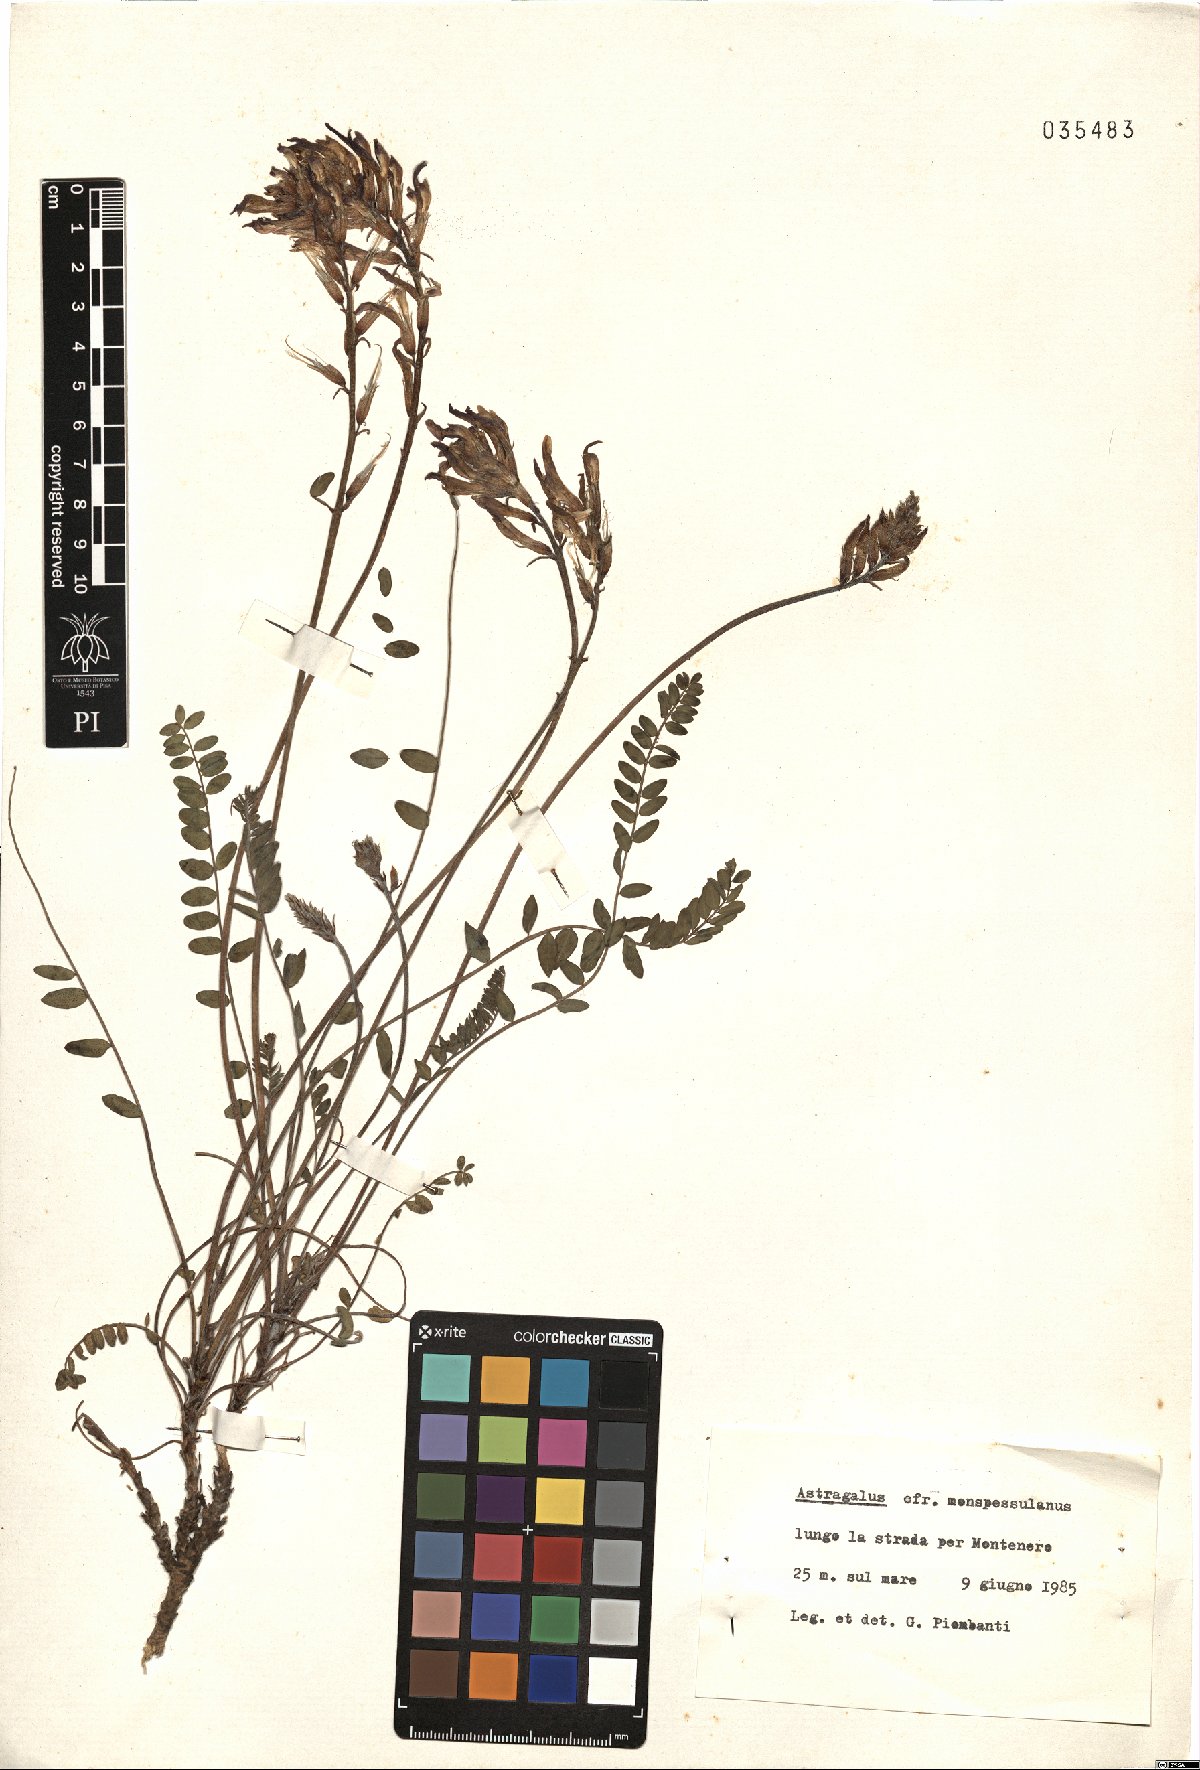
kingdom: Plantae
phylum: Tracheophyta
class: Magnoliopsida
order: Fabales
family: Fabaceae
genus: Astragalus
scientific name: Astragalus monspessulanus
